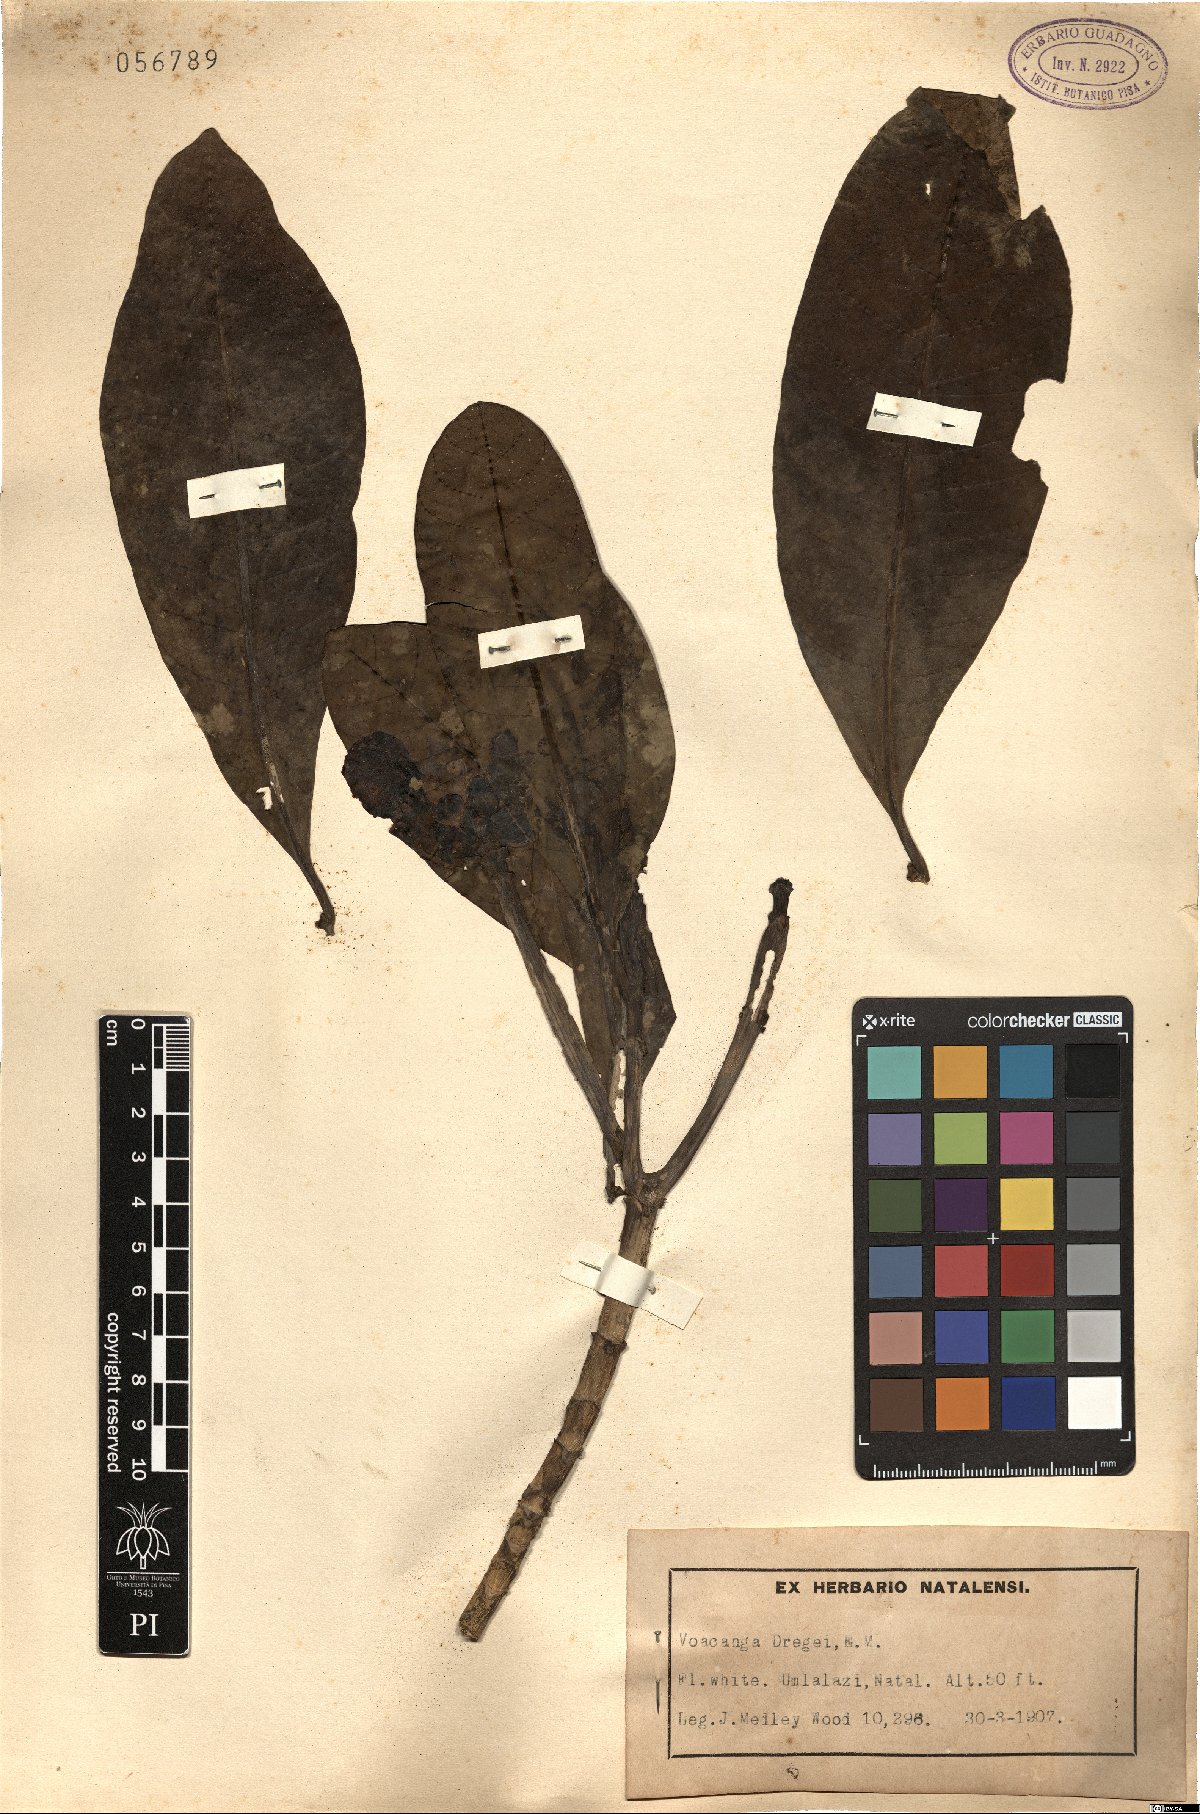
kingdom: Plantae
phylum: Tracheophyta
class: Magnoliopsida
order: Gentianales
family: Apocynaceae
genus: Voacanga
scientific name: Voacanga thouarsii
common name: Wild frangipani
